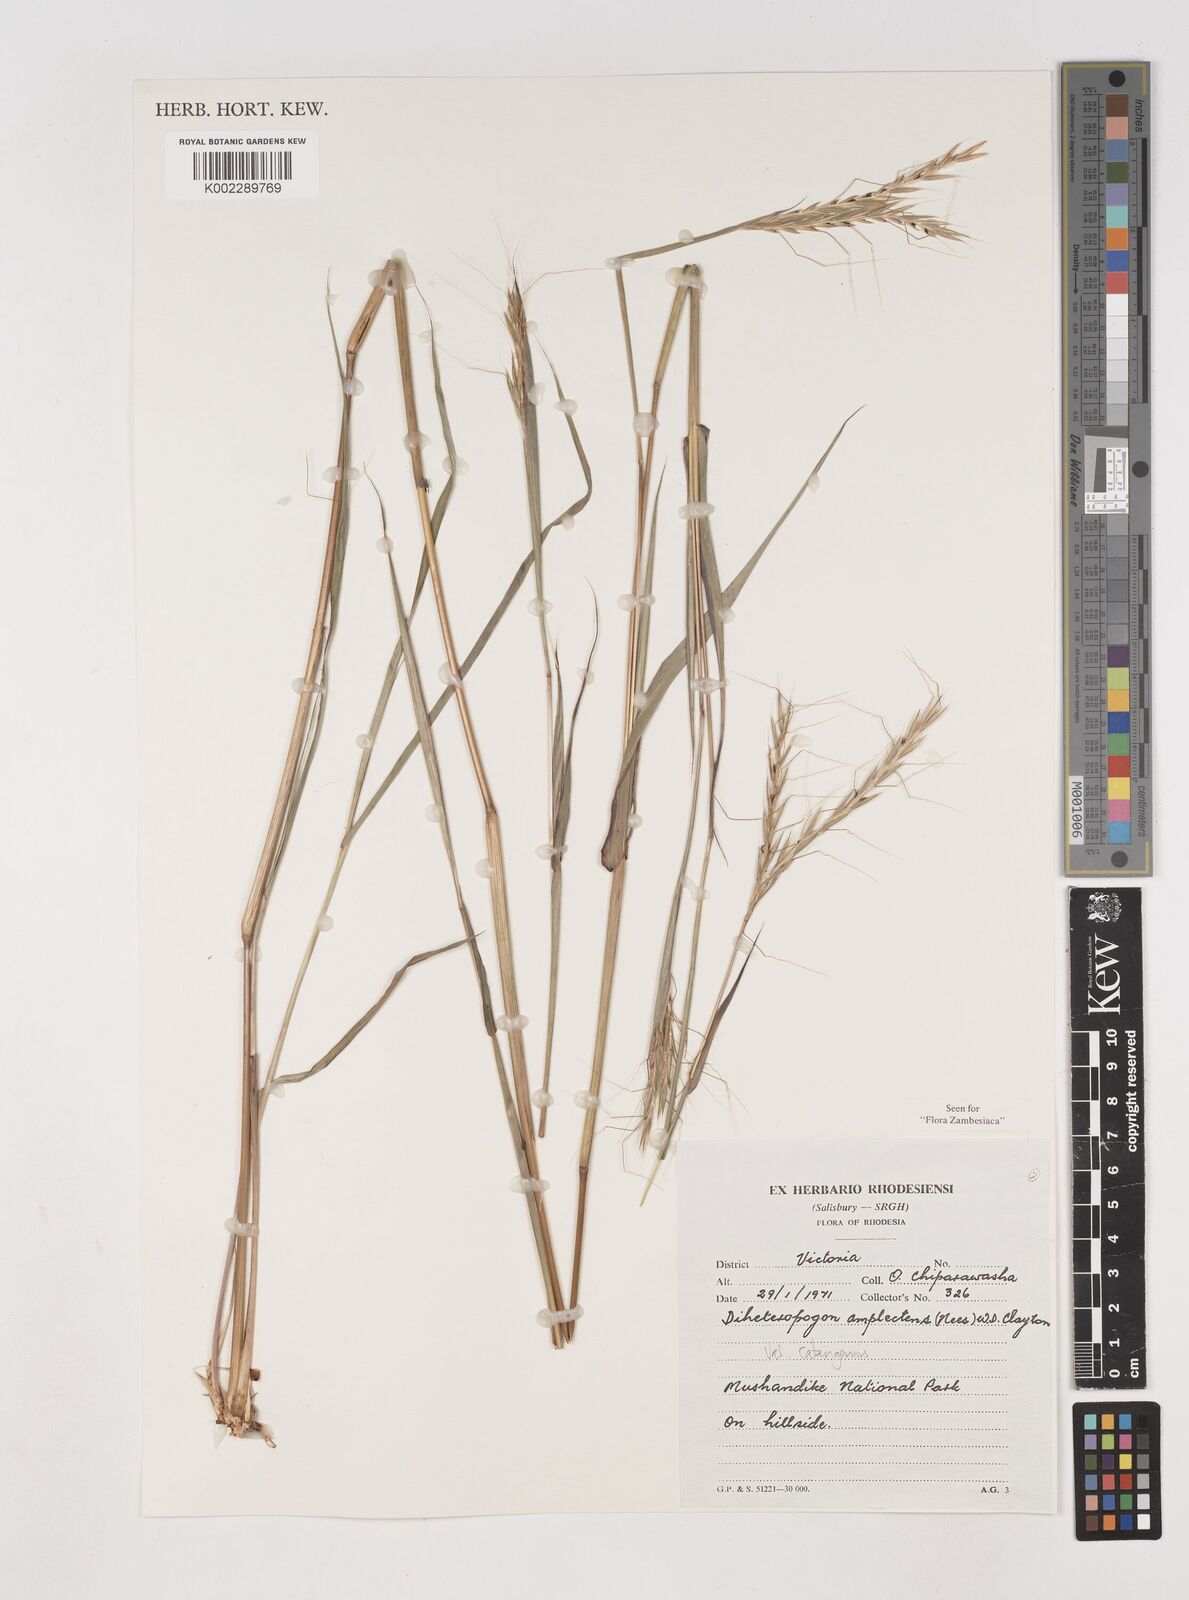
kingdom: Plantae
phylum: Tracheophyta
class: Liliopsida
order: Poales
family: Poaceae
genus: Diheteropogon
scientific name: Diheteropogon amplectens
